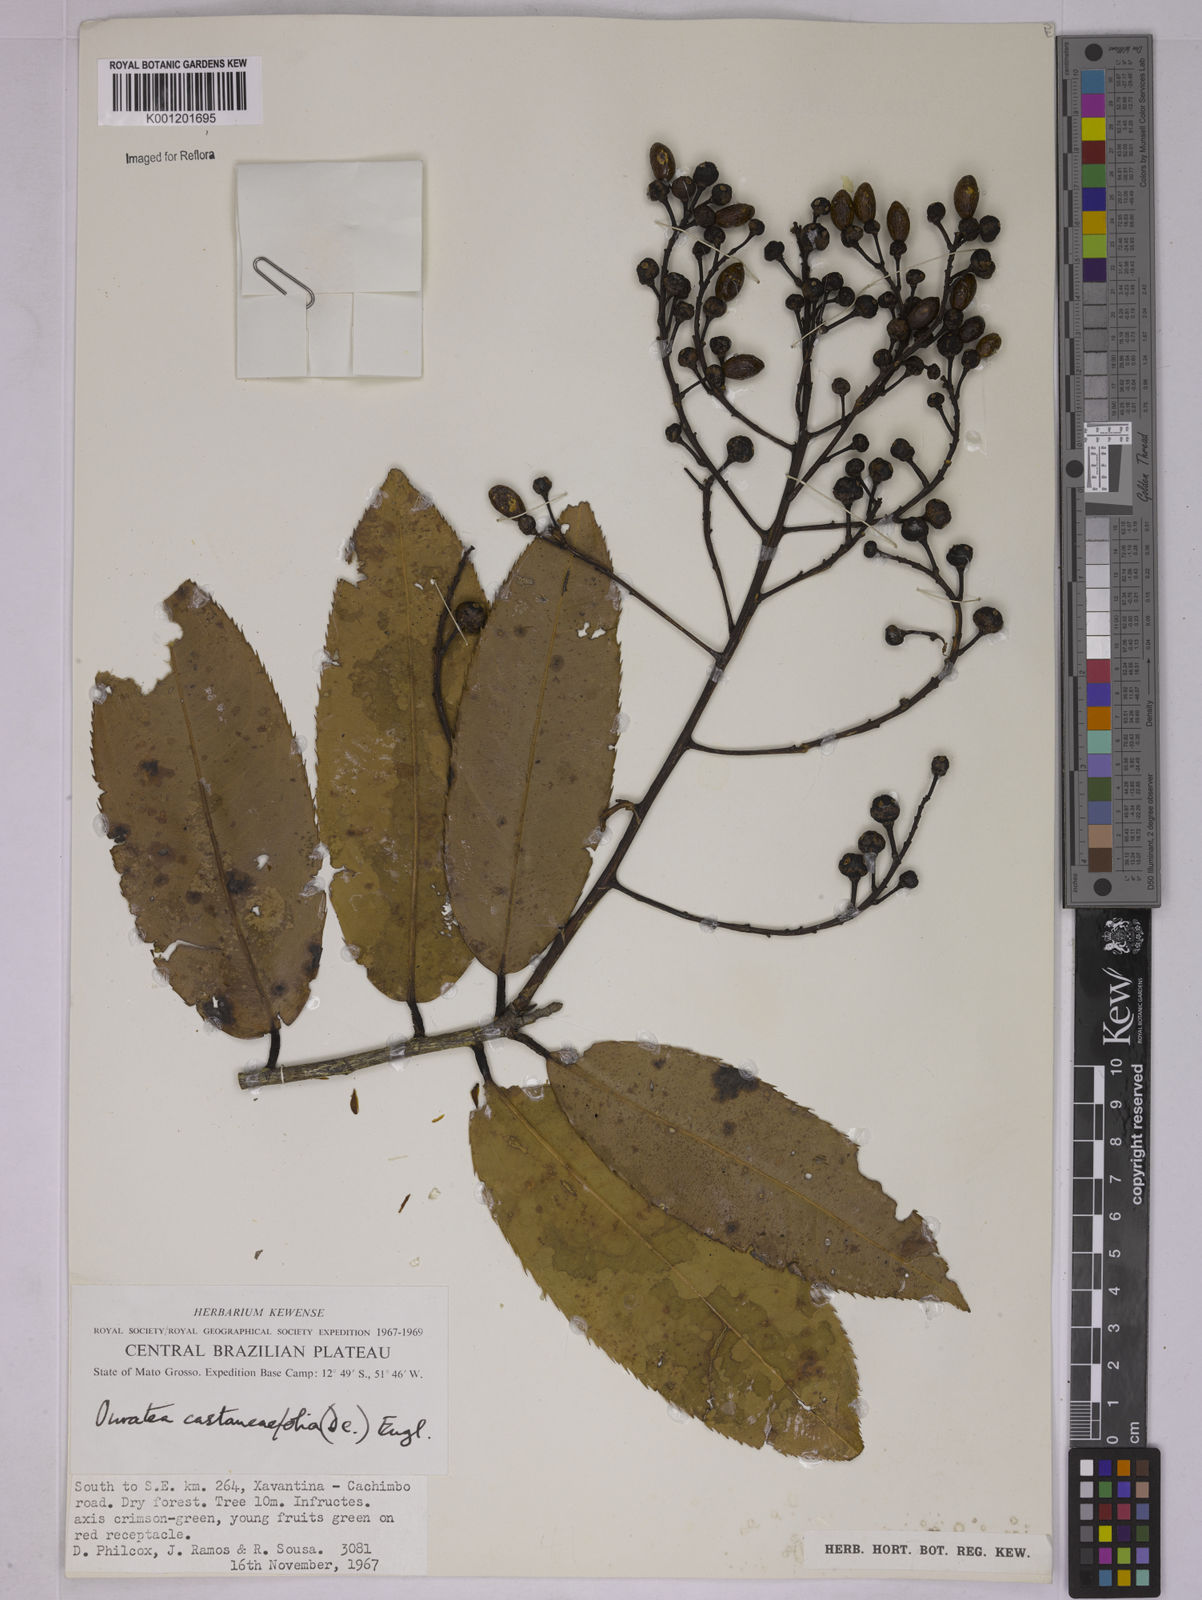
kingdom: Plantae
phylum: Tracheophyta
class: Magnoliopsida
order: Malpighiales
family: Ochnaceae
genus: Ouratea
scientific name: Ouratea castaneifolia
